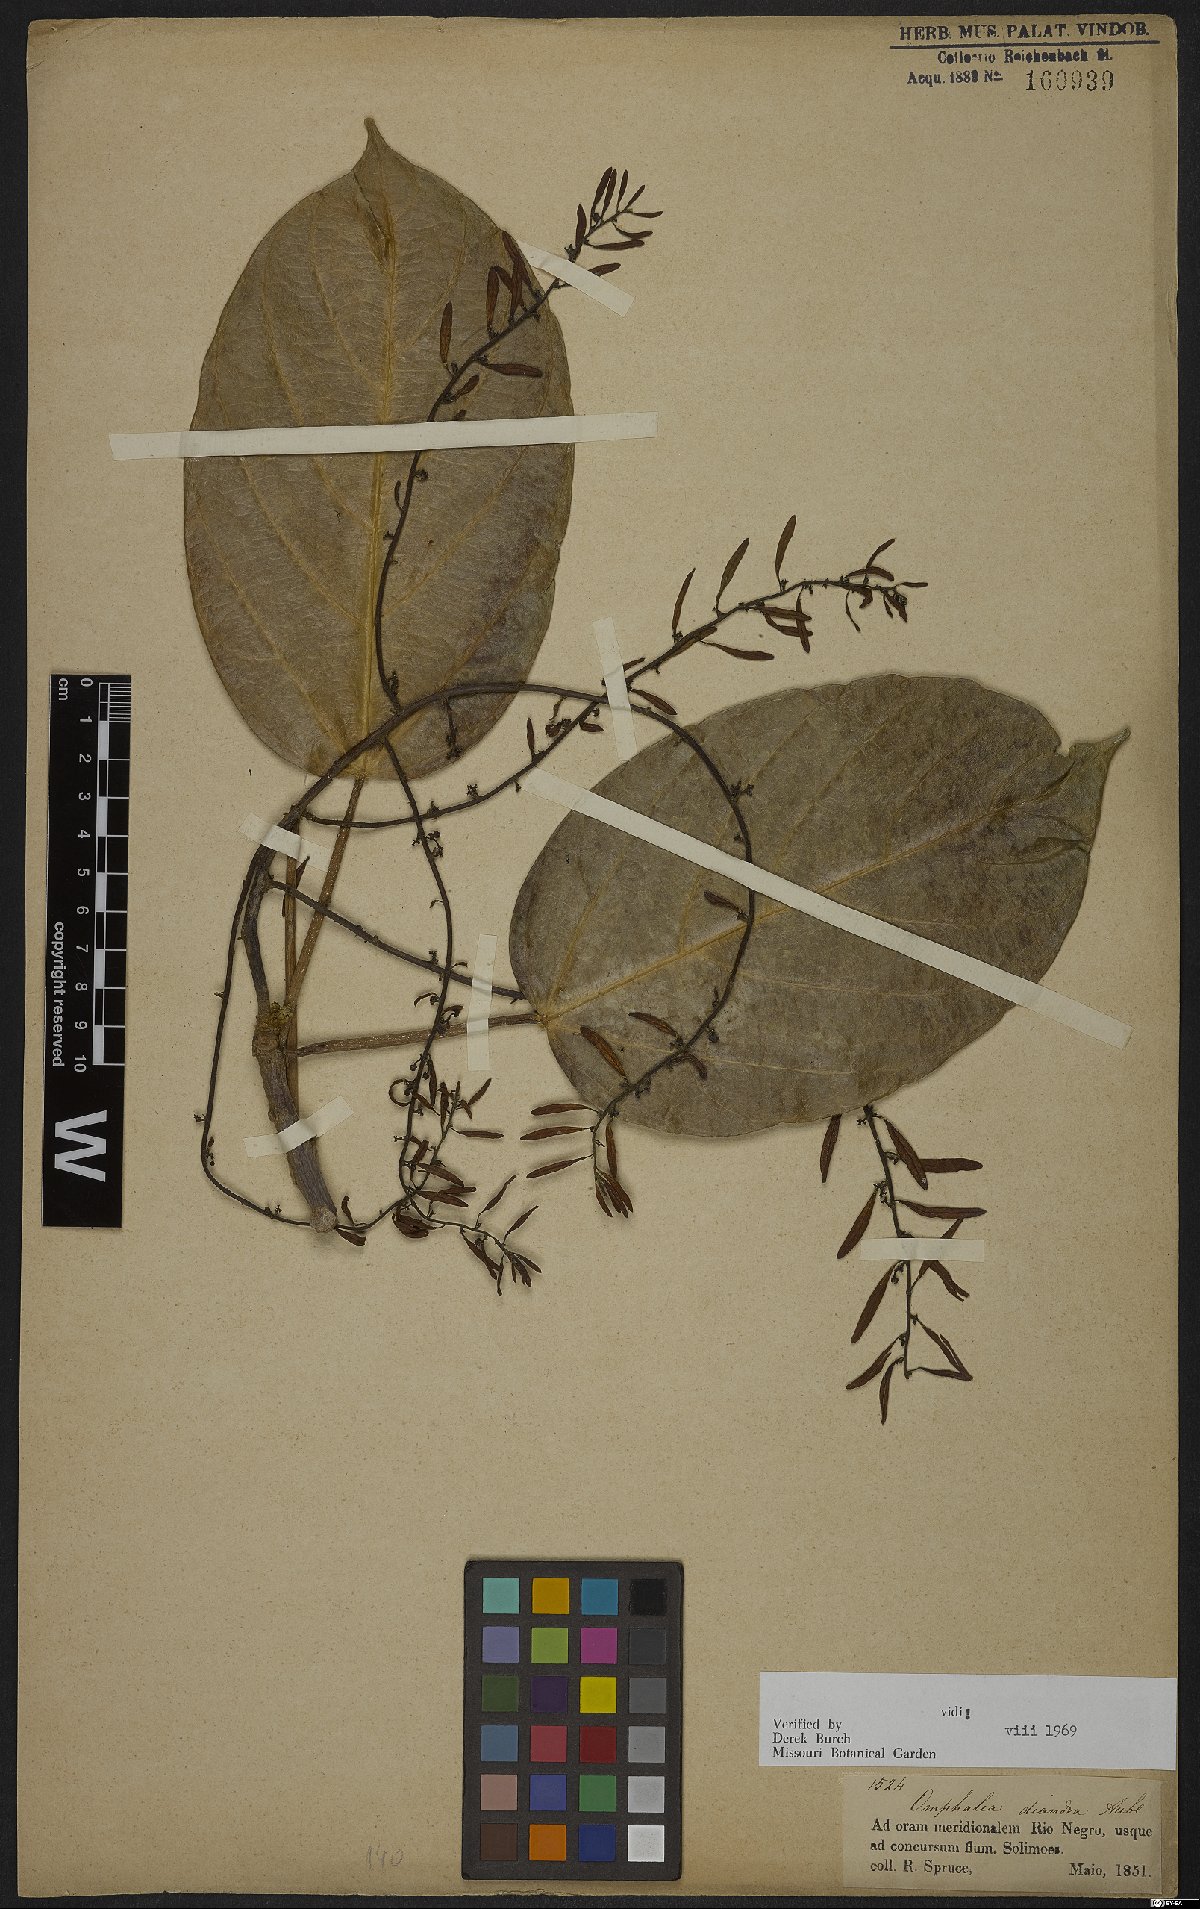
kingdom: Plantae
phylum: Tracheophyta
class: Magnoliopsida
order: Malpighiales
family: Euphorbiaceae
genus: Omphalea
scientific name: Omphalea diandra
